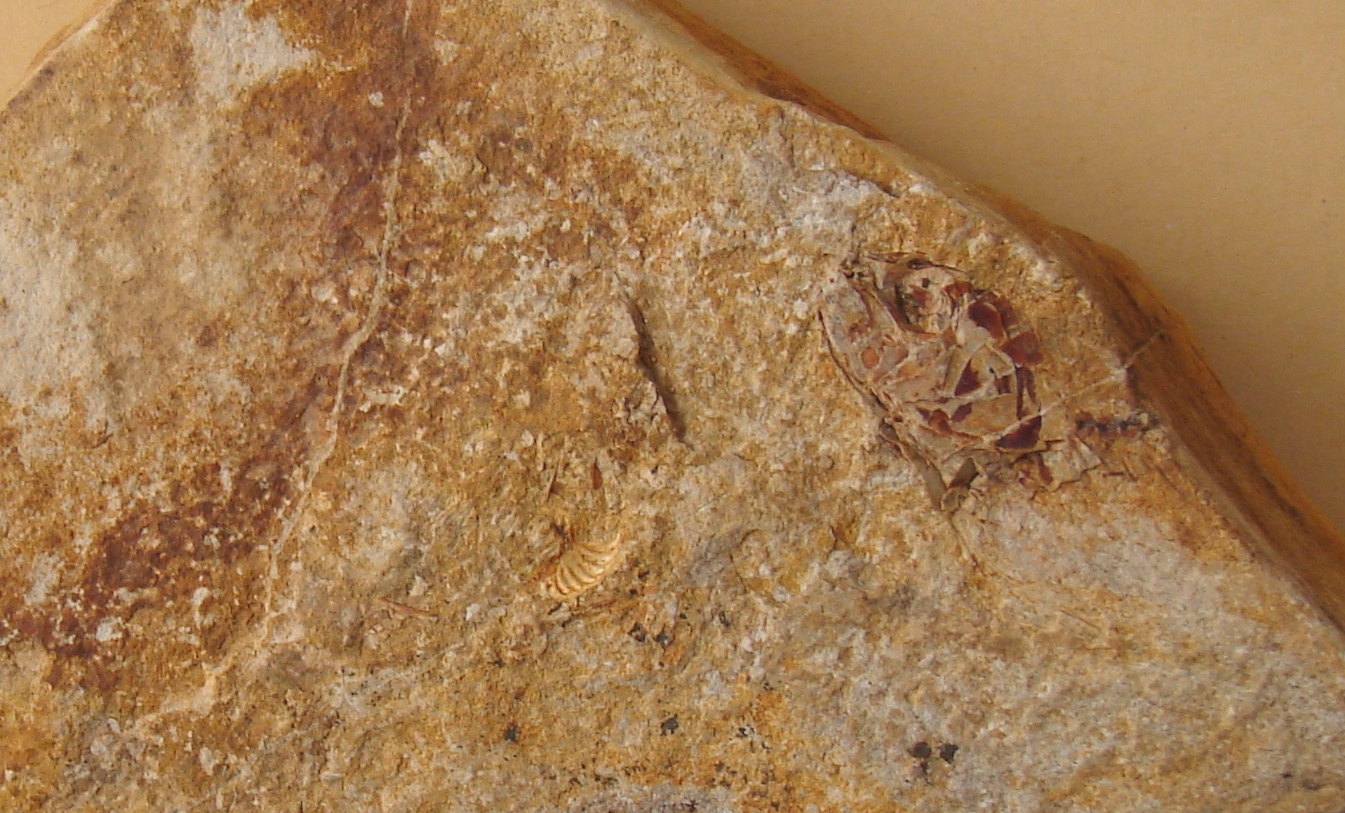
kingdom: Animalia
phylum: Chordata
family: Leptolepididae
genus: Leptolepis
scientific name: Leptolepis normandica
